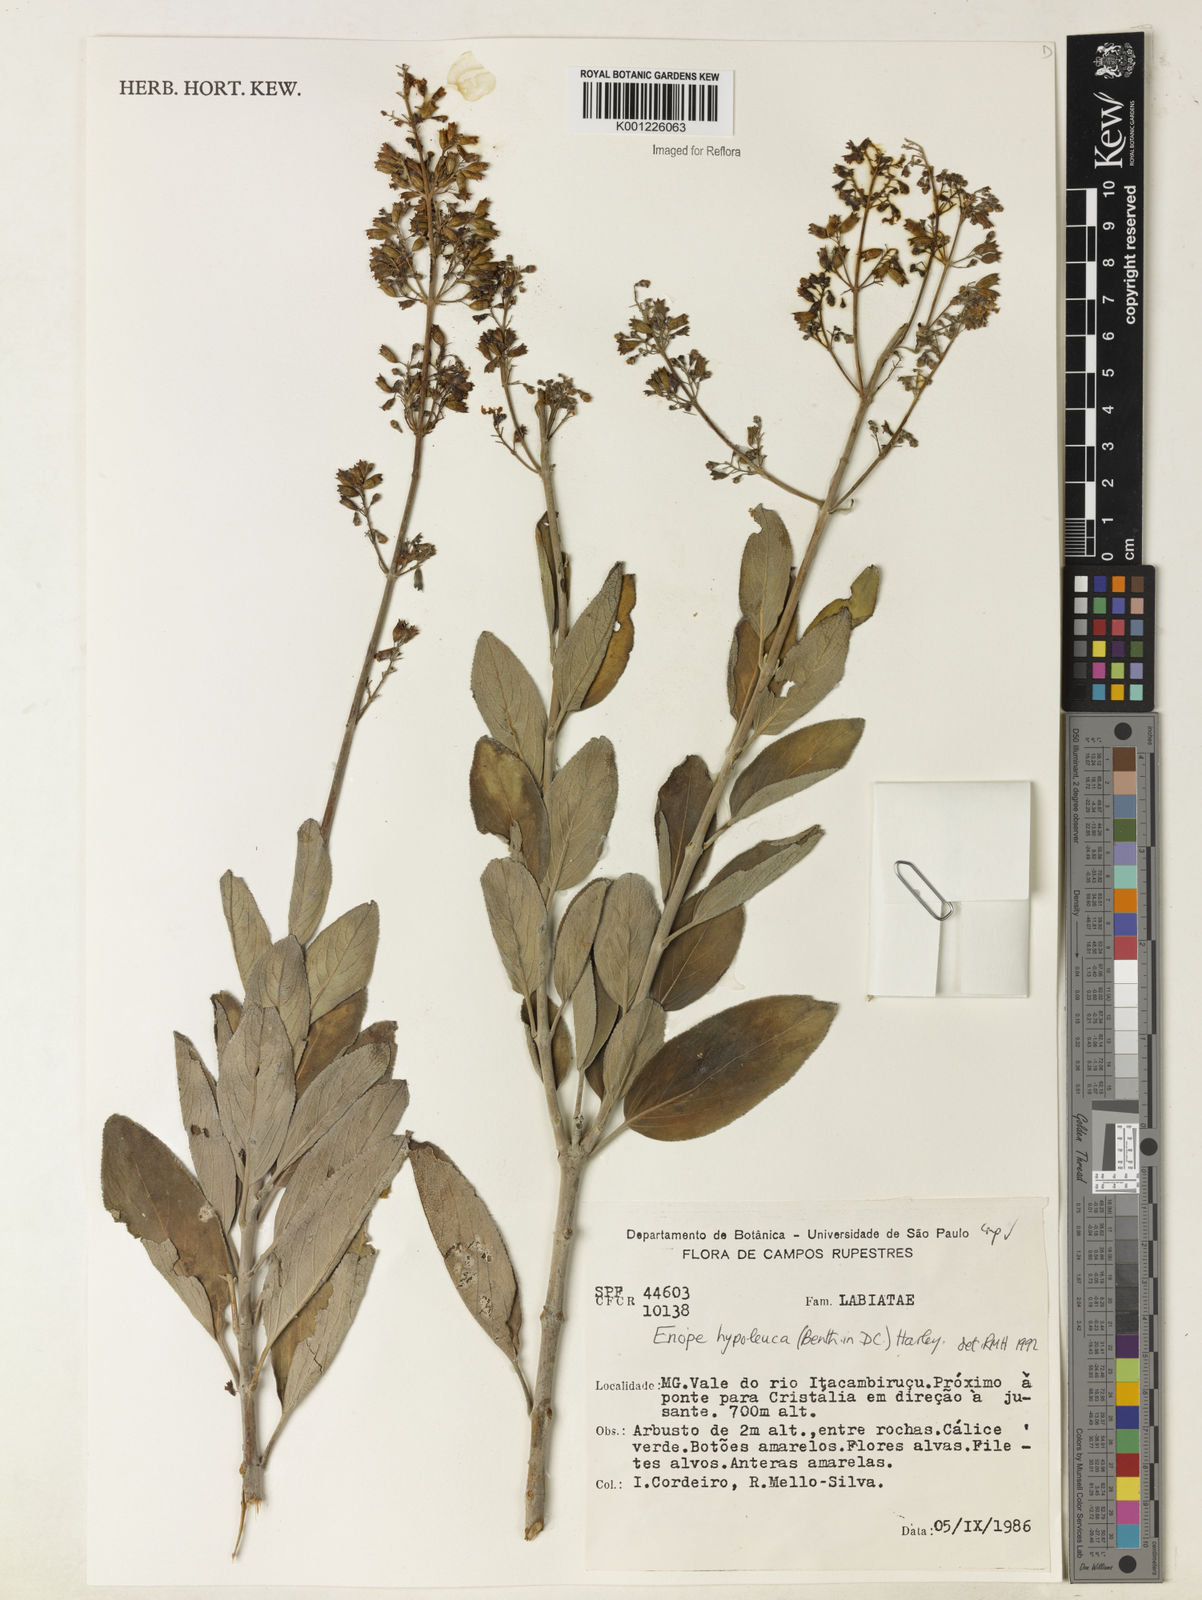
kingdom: Plantae
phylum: Tracheophyta
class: Magnoliopsida
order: Lamiales
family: Lamiaceae
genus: Eriope
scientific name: Eriope hypoleuca
